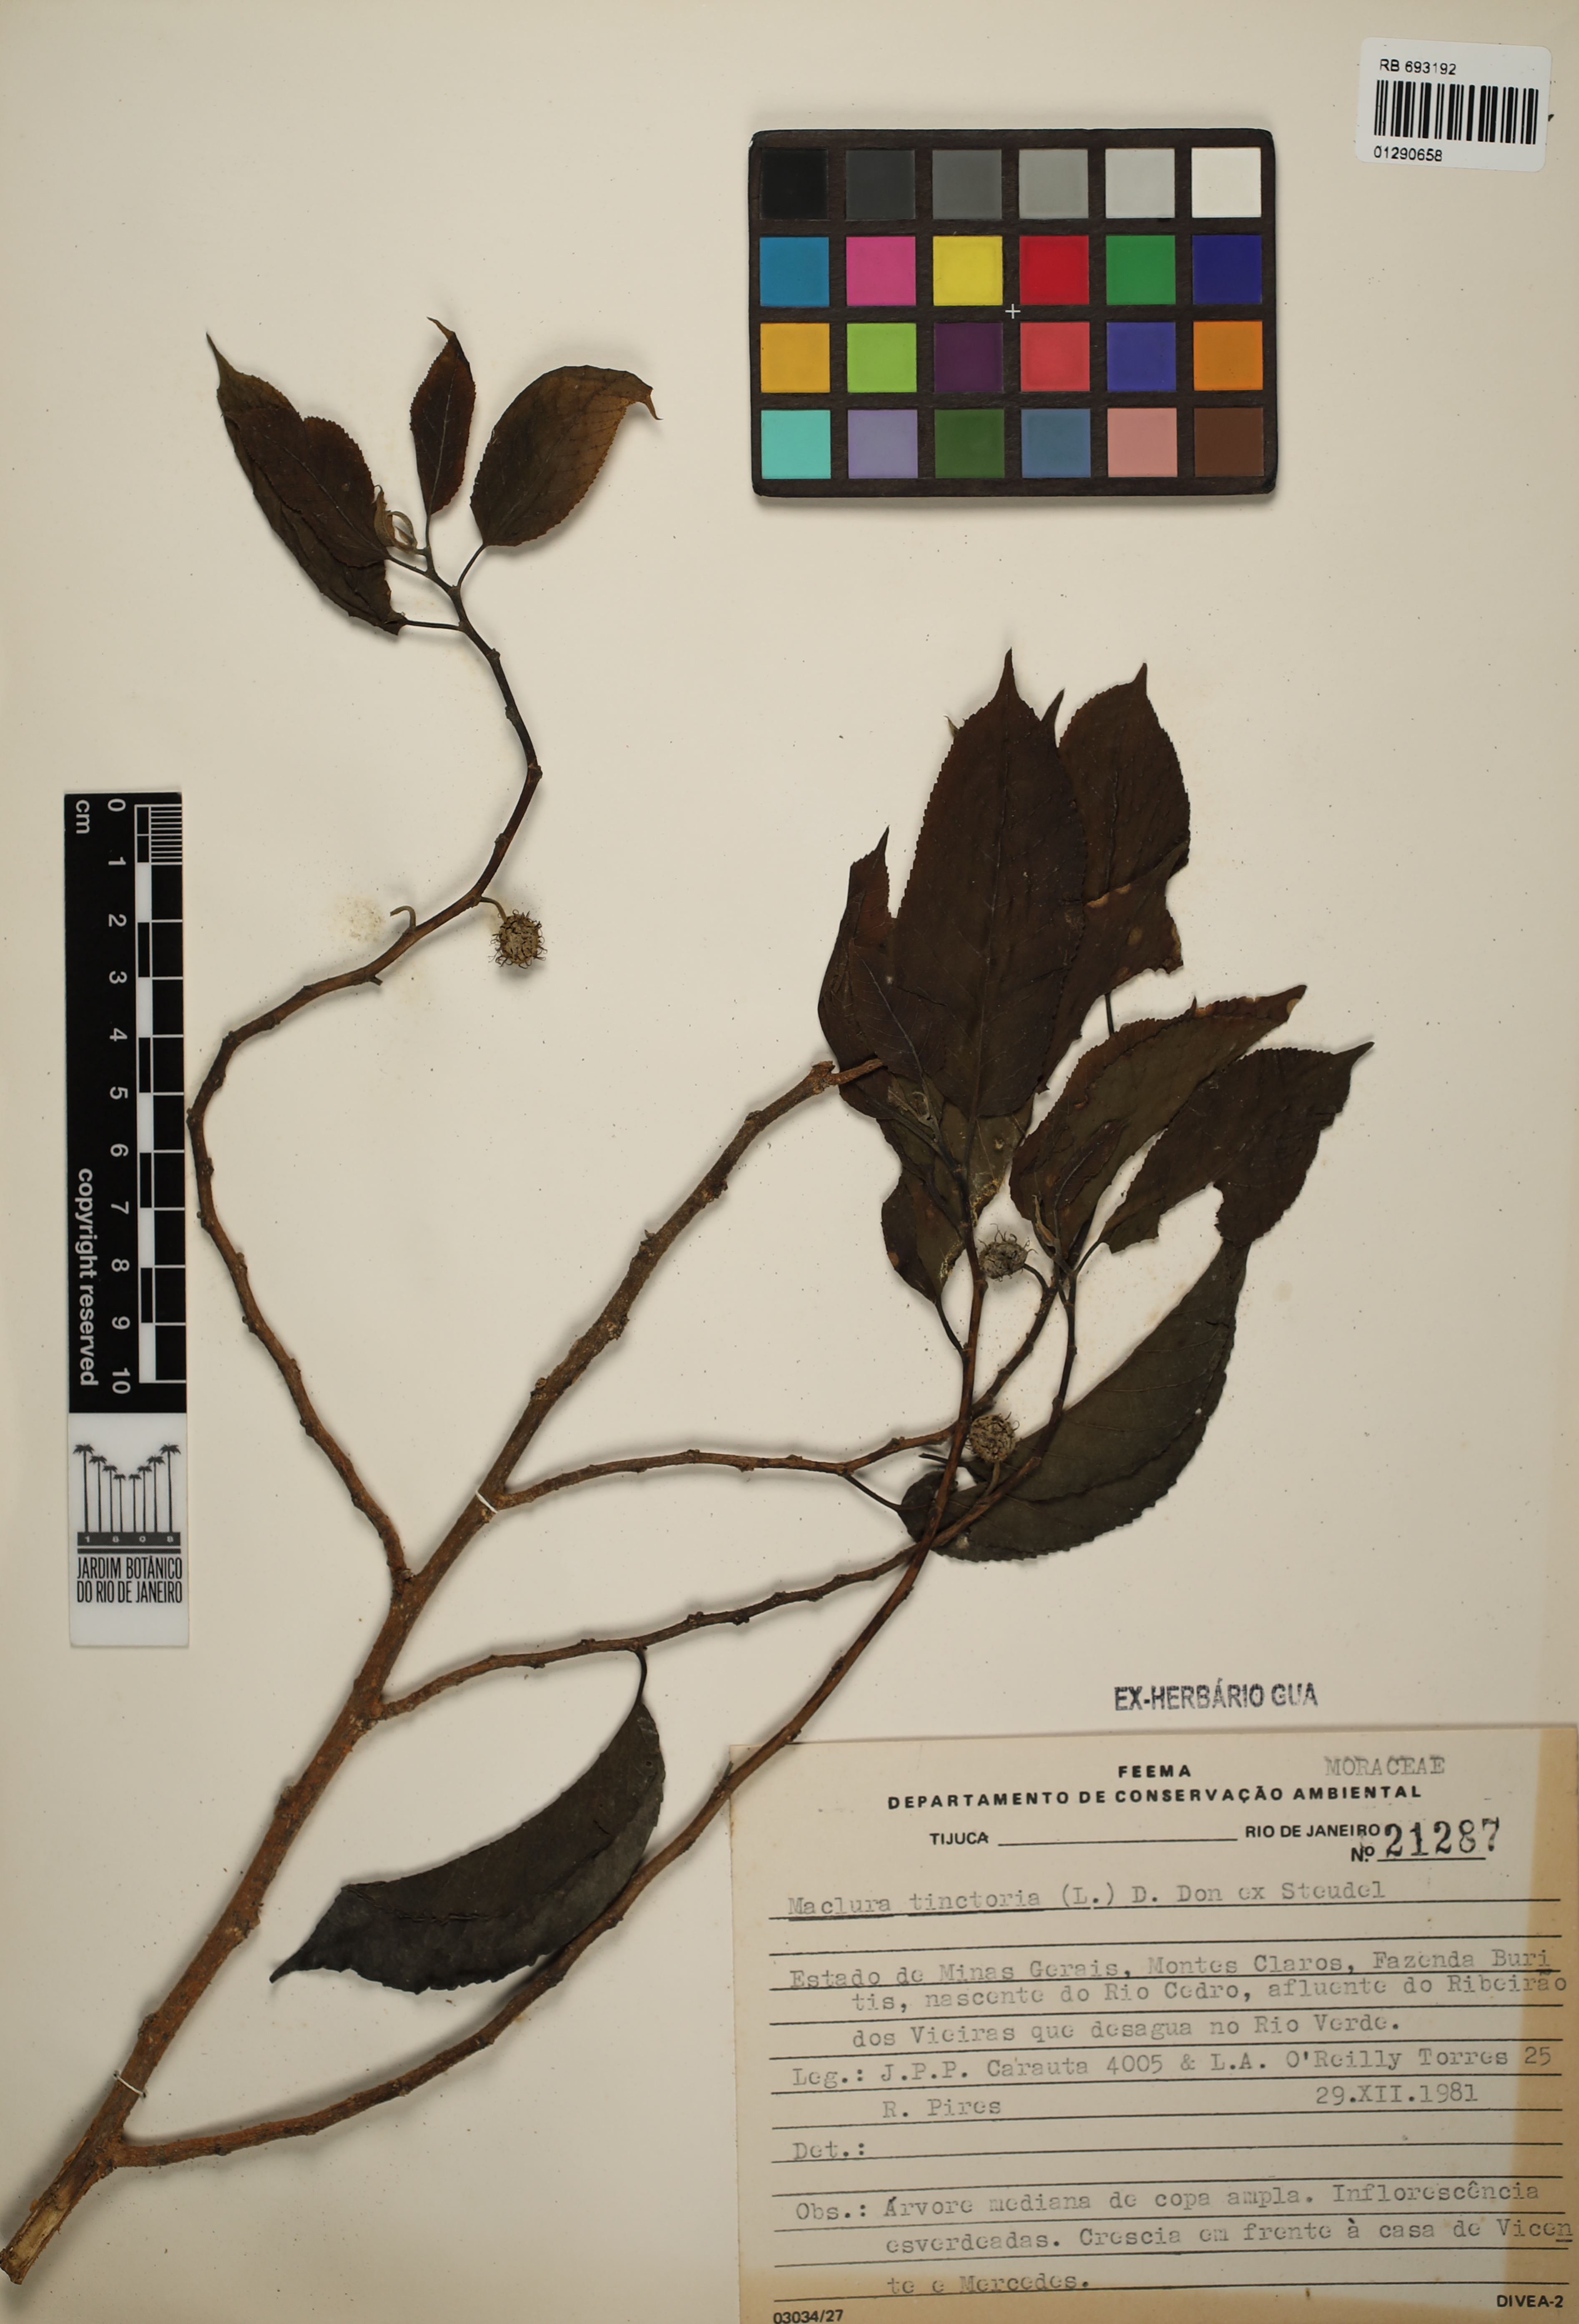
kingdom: Plantae
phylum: Tracheophyta
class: Magnoliopsida
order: Rosales
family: Moraceae
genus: Maclura
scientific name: Maclura tinctoria
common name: Old fustic
